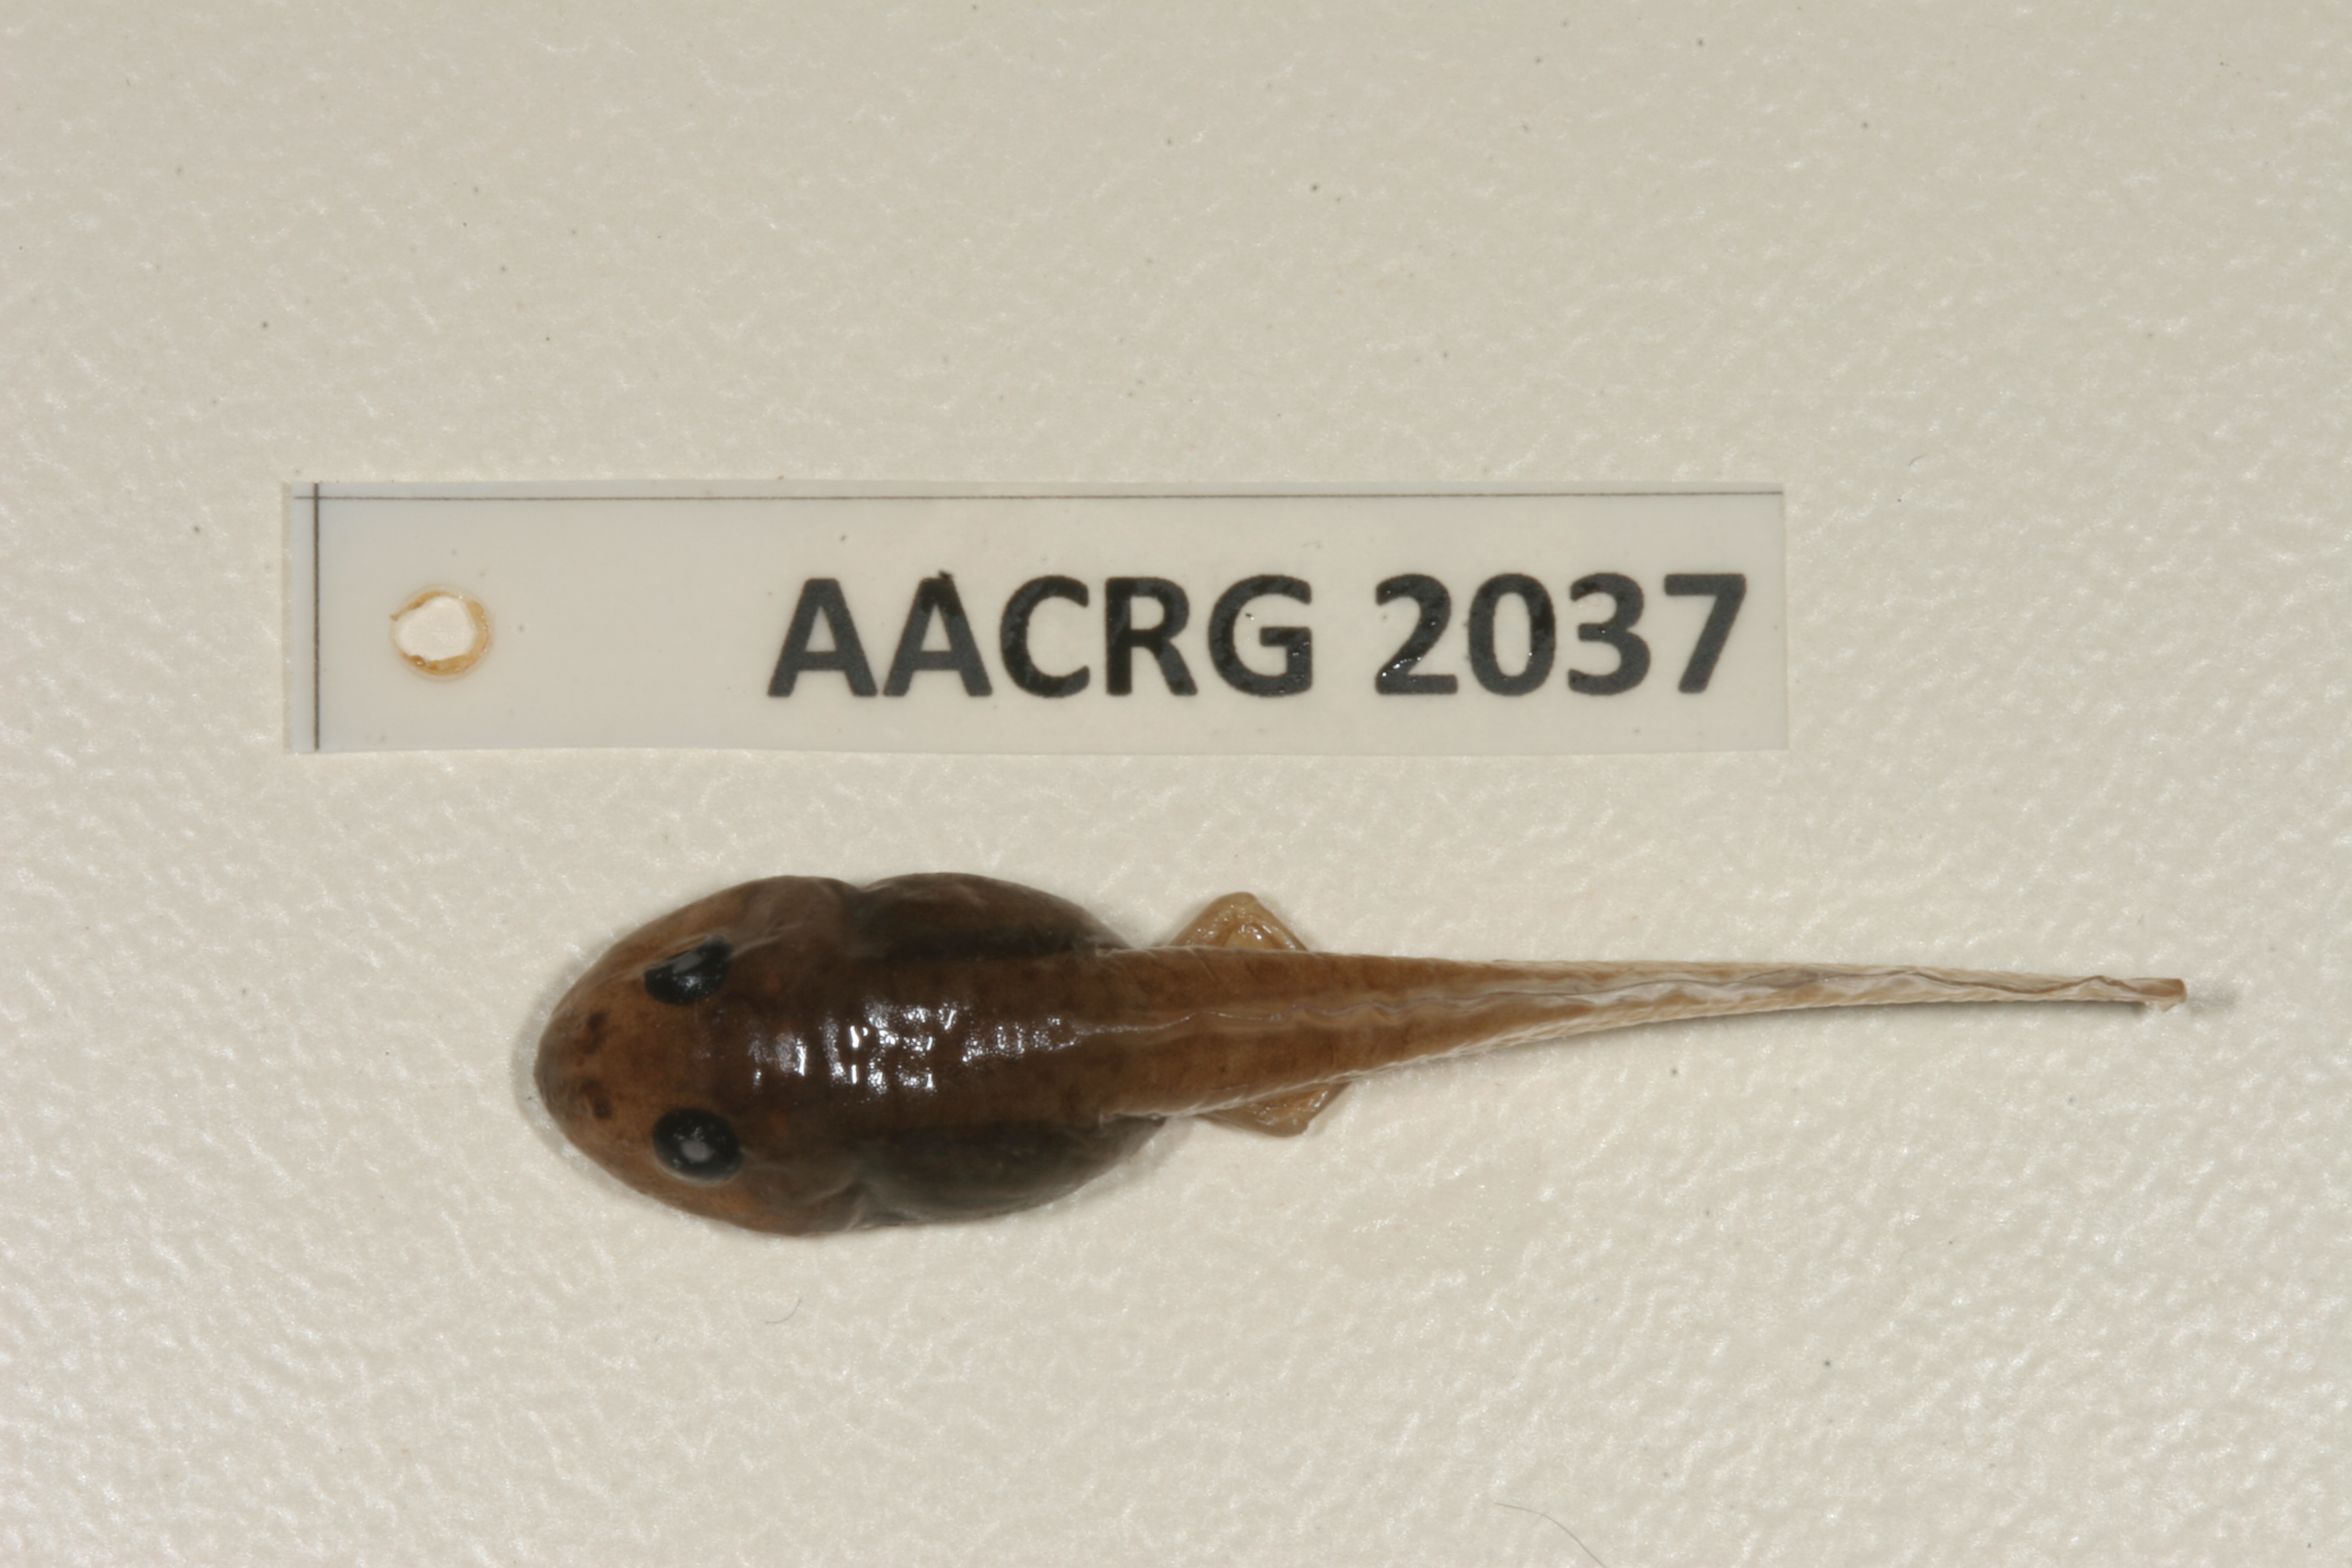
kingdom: Animalia
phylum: Chordata
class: Amphibia
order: Anura
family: Ptychadenidae
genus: Ptychadena
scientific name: Ptychadena mascareniensis
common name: Mascarene grass frog
